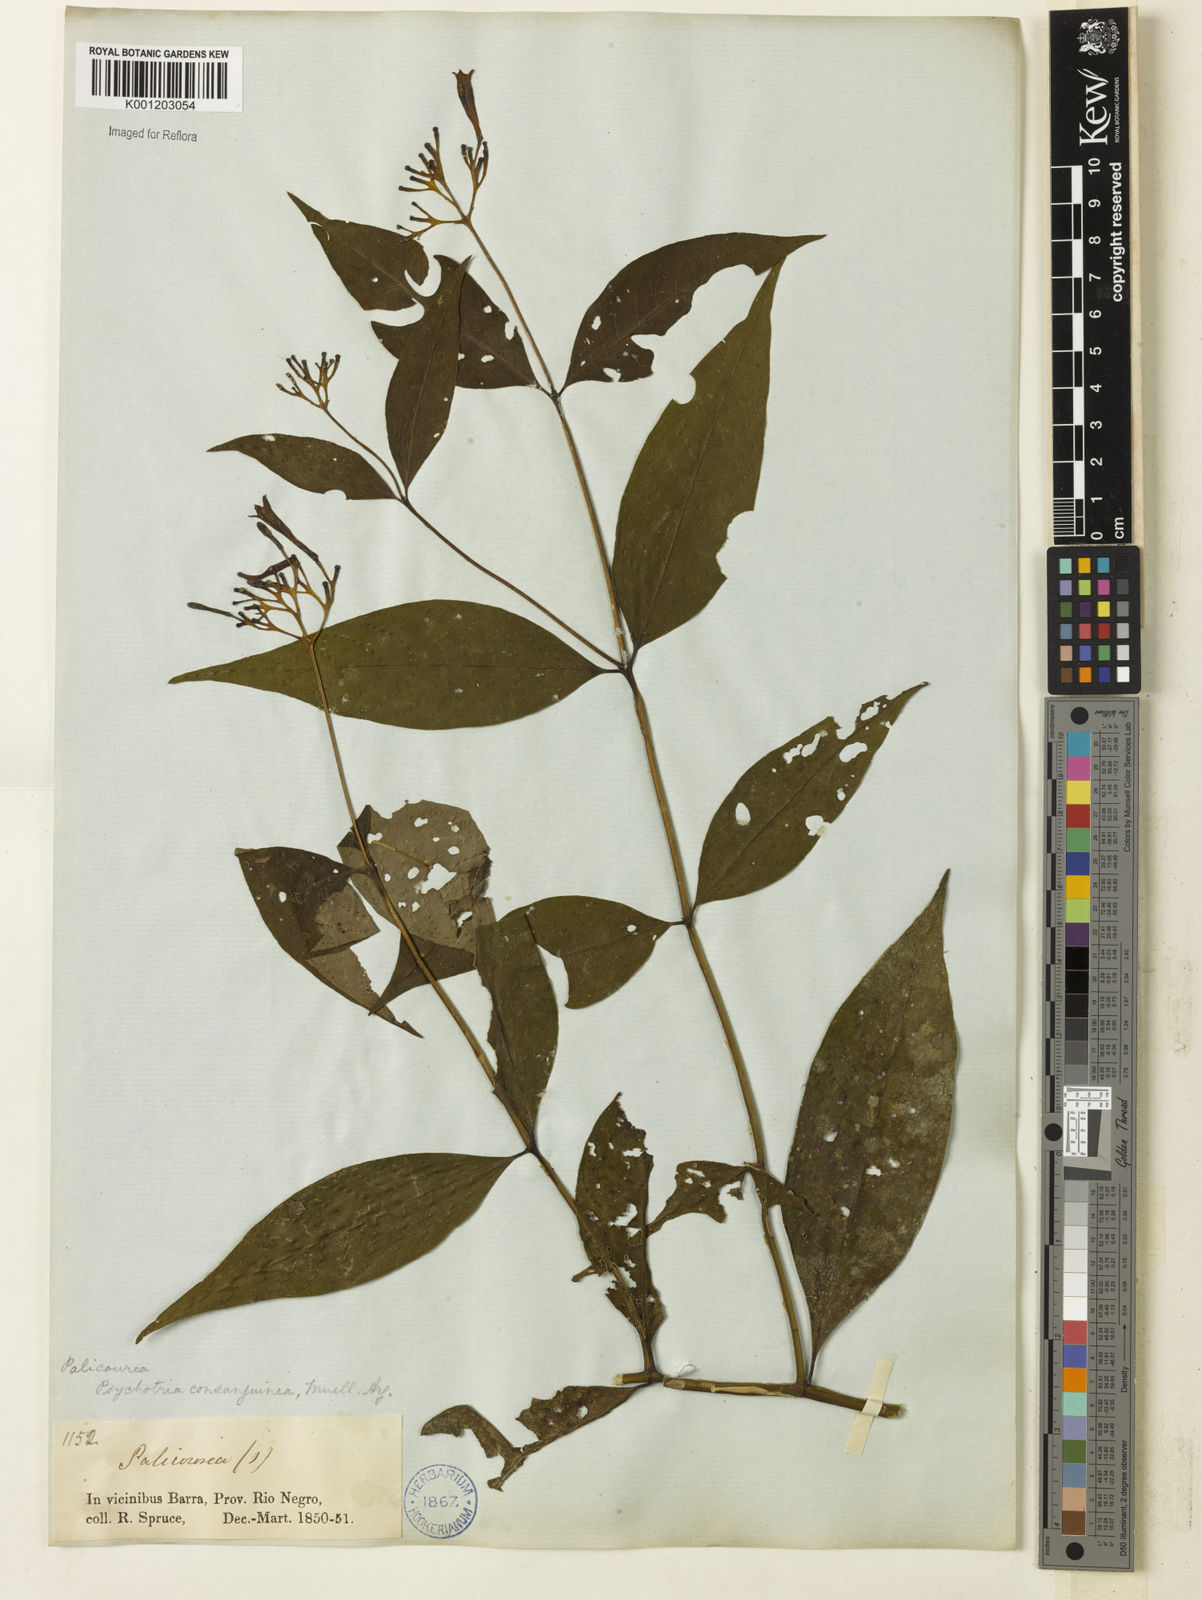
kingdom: Plantae
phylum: Tracheophyta
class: Magnoliopsida
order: Gentianales
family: Rubiaceae
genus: Palicourea
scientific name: Palicourea
